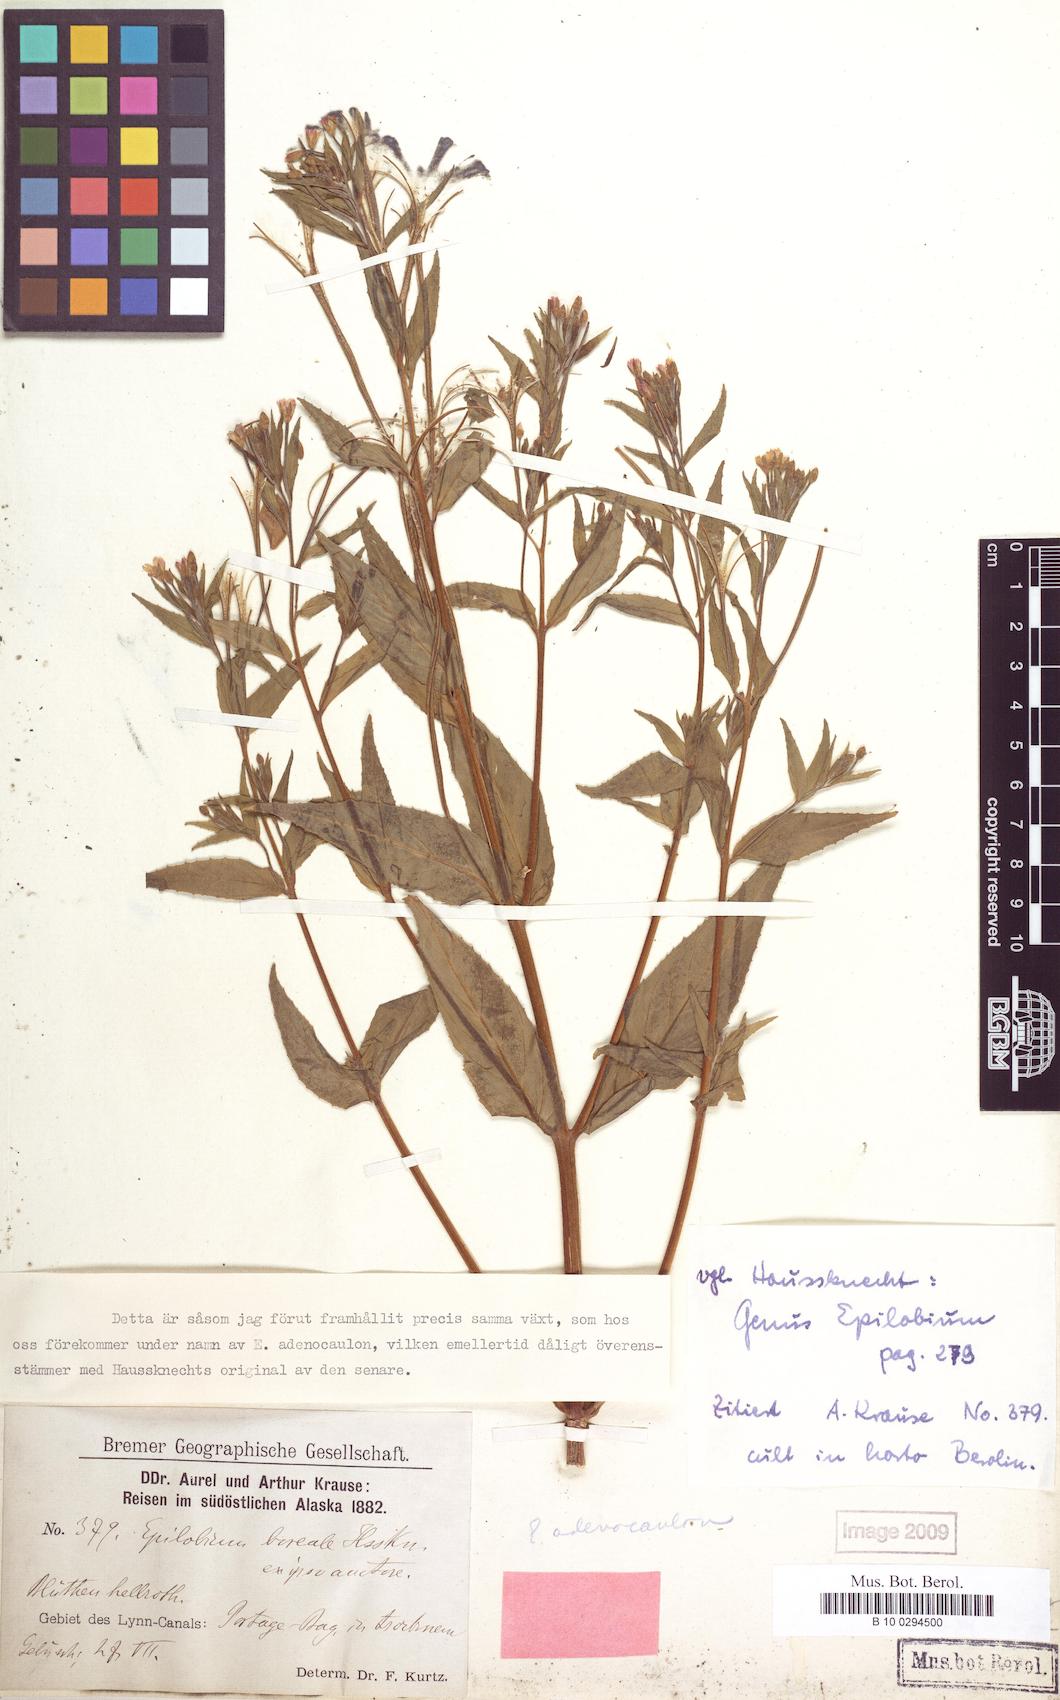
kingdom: Plantae
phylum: Tracheophyta
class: Magnoliopsida
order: Myrtales
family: Onagraceae
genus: Epilobium
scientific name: Epilobium ciliatum
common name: American willowherb
